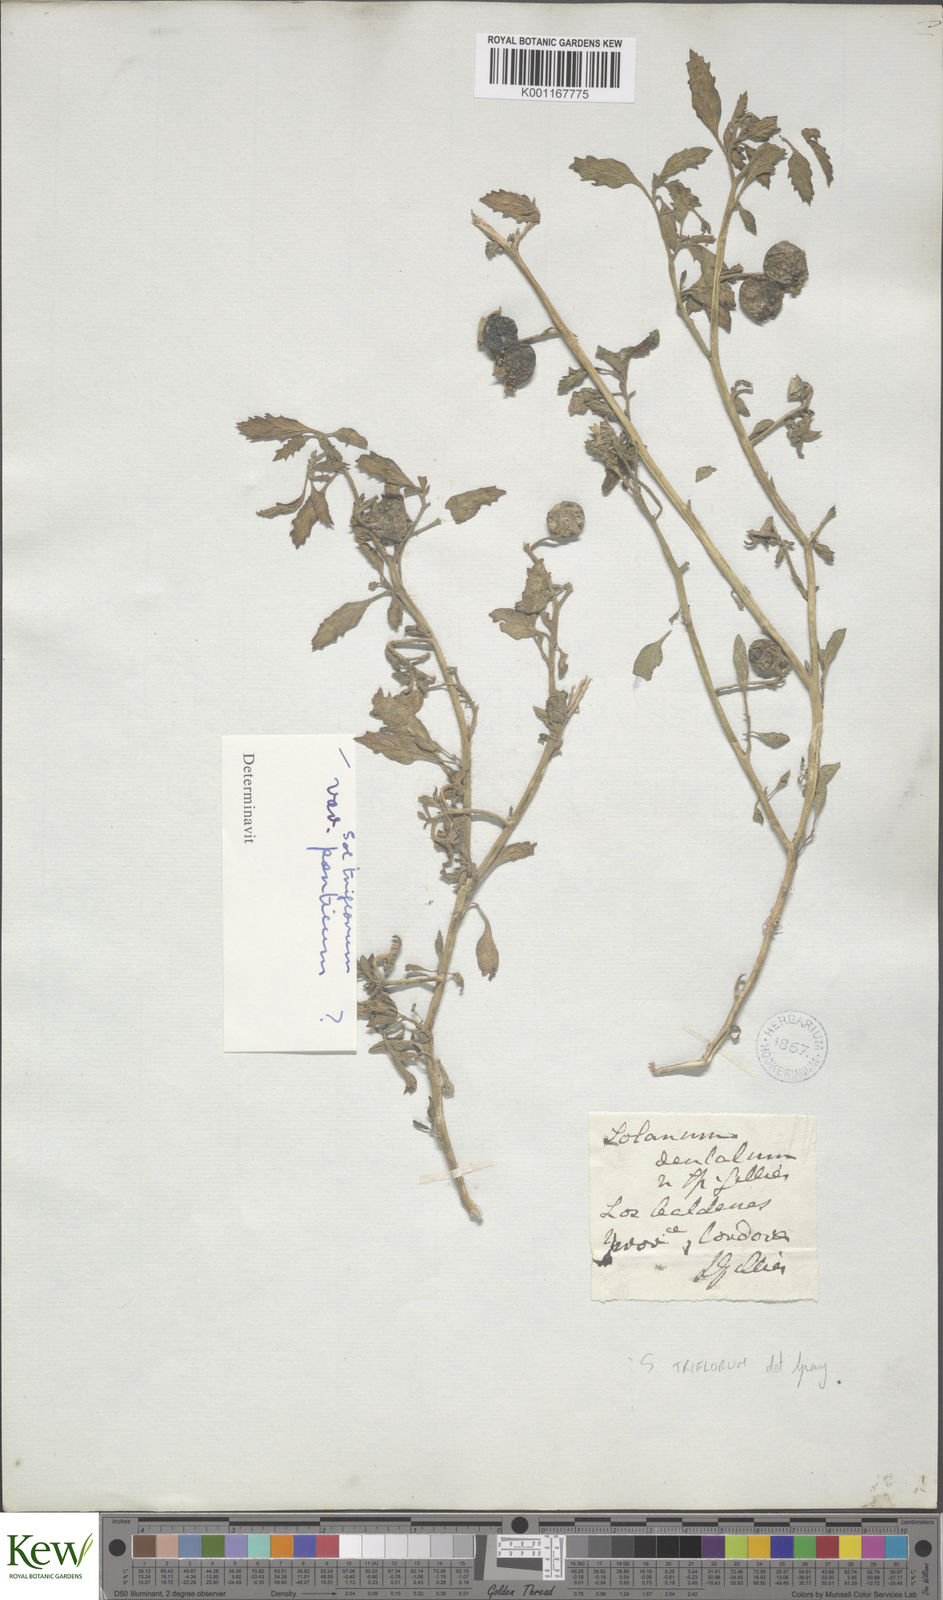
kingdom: Plantae
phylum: Tracheophyta
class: Magnoliopsida
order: Solanales
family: Solanaceae
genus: Solanum
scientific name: Solanum triflorum
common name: Small nightshade
